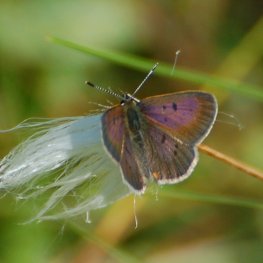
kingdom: Animalia
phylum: Arthropoda
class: Insecta
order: Lepidoptera
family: Sesiidae
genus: Sesia
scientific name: Sesia Lycaena epixanthe
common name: Bog Copper
